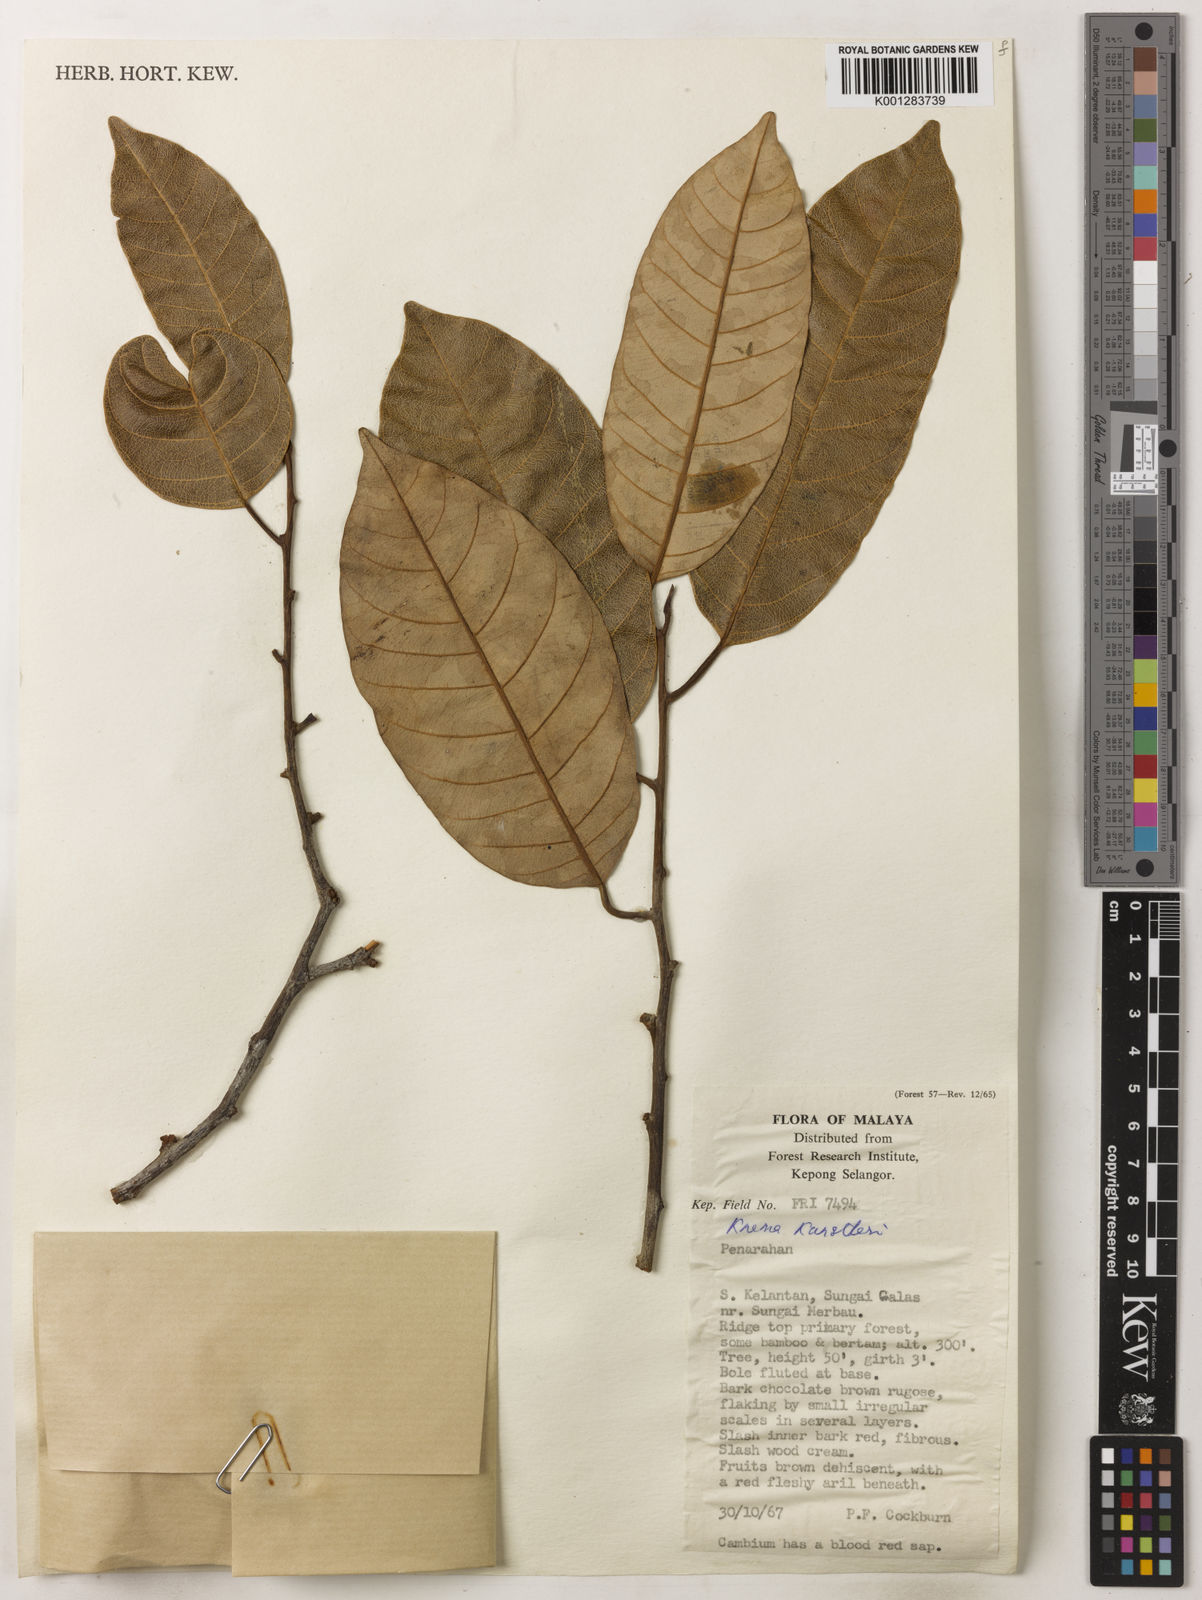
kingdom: Plantae
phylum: Tracheophyta
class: Magnoliopsida
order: Magnoliales
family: Myristicaceae
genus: Knema
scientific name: Knema kunstleri
